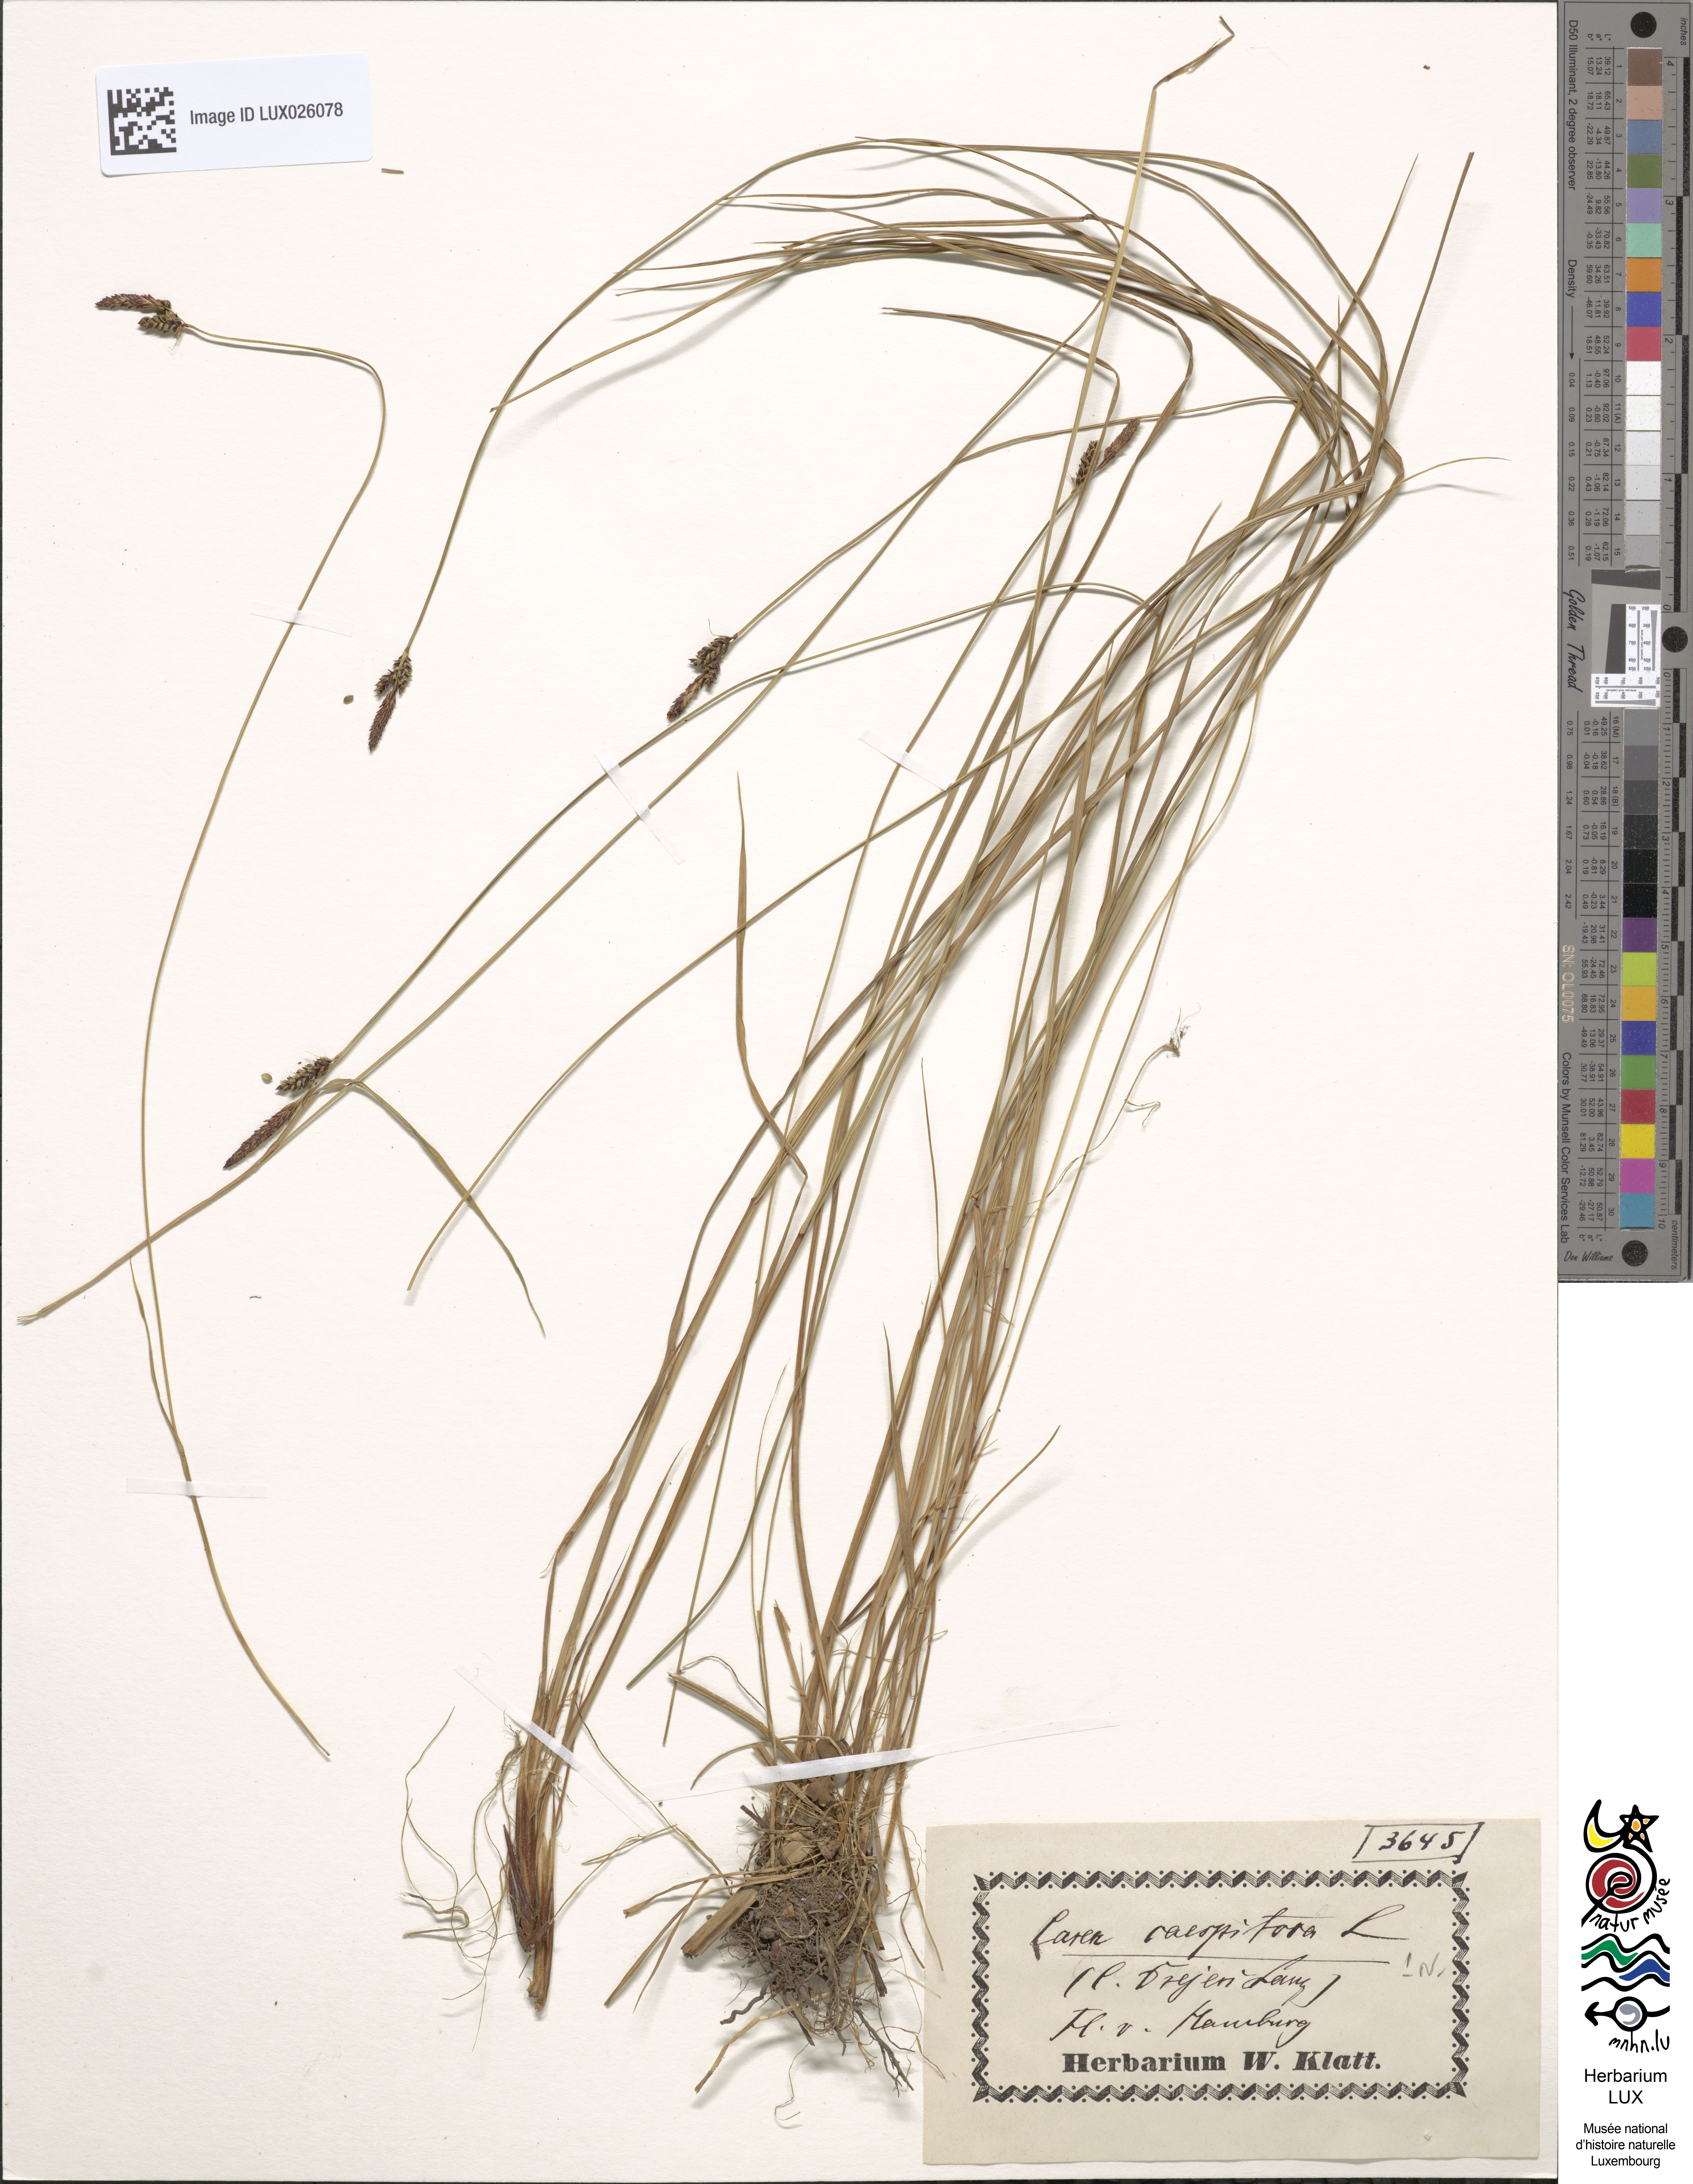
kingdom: Plantae
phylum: Tracheophyta
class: Liliopsida
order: Poales
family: Cyperaceae
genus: Carex
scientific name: Carex cespitosa
